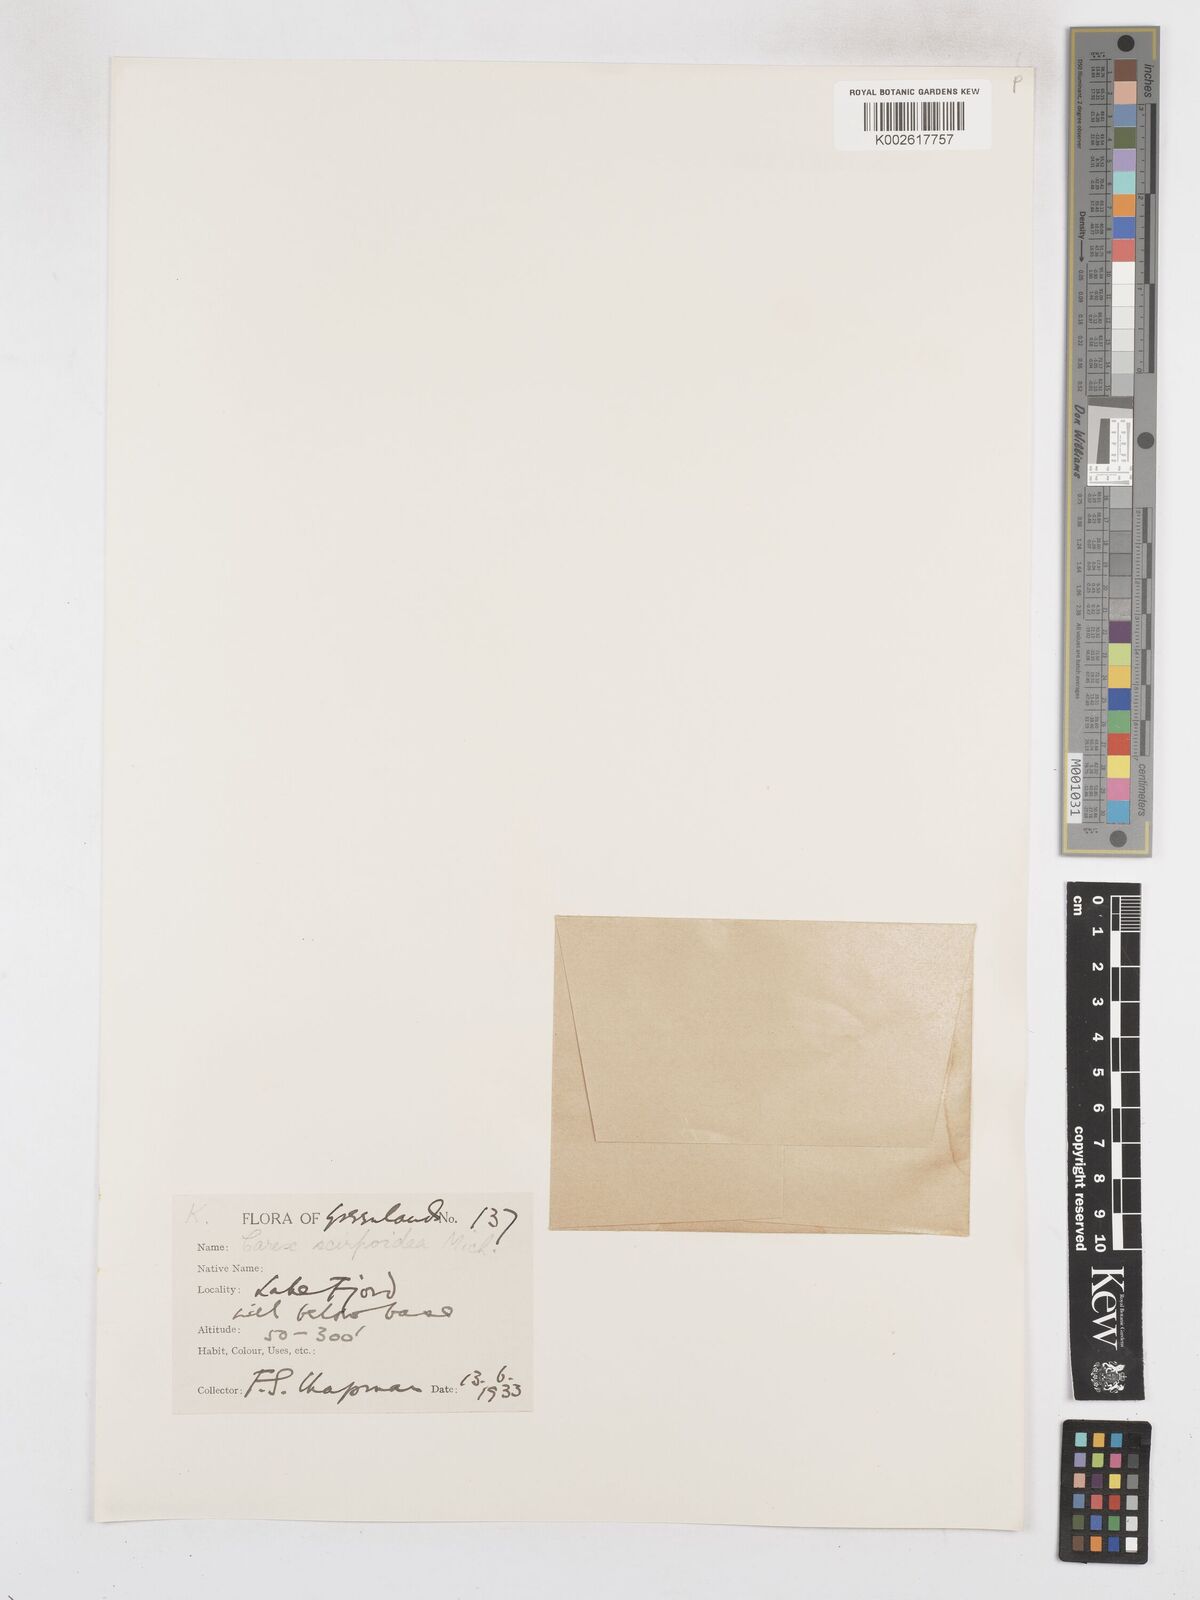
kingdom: Plantae
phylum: Tracheophyta
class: Liliopsida
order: Poales
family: Cyperaceae
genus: Carex
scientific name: Carex scirpoidea
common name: Canada single-spike sedge
